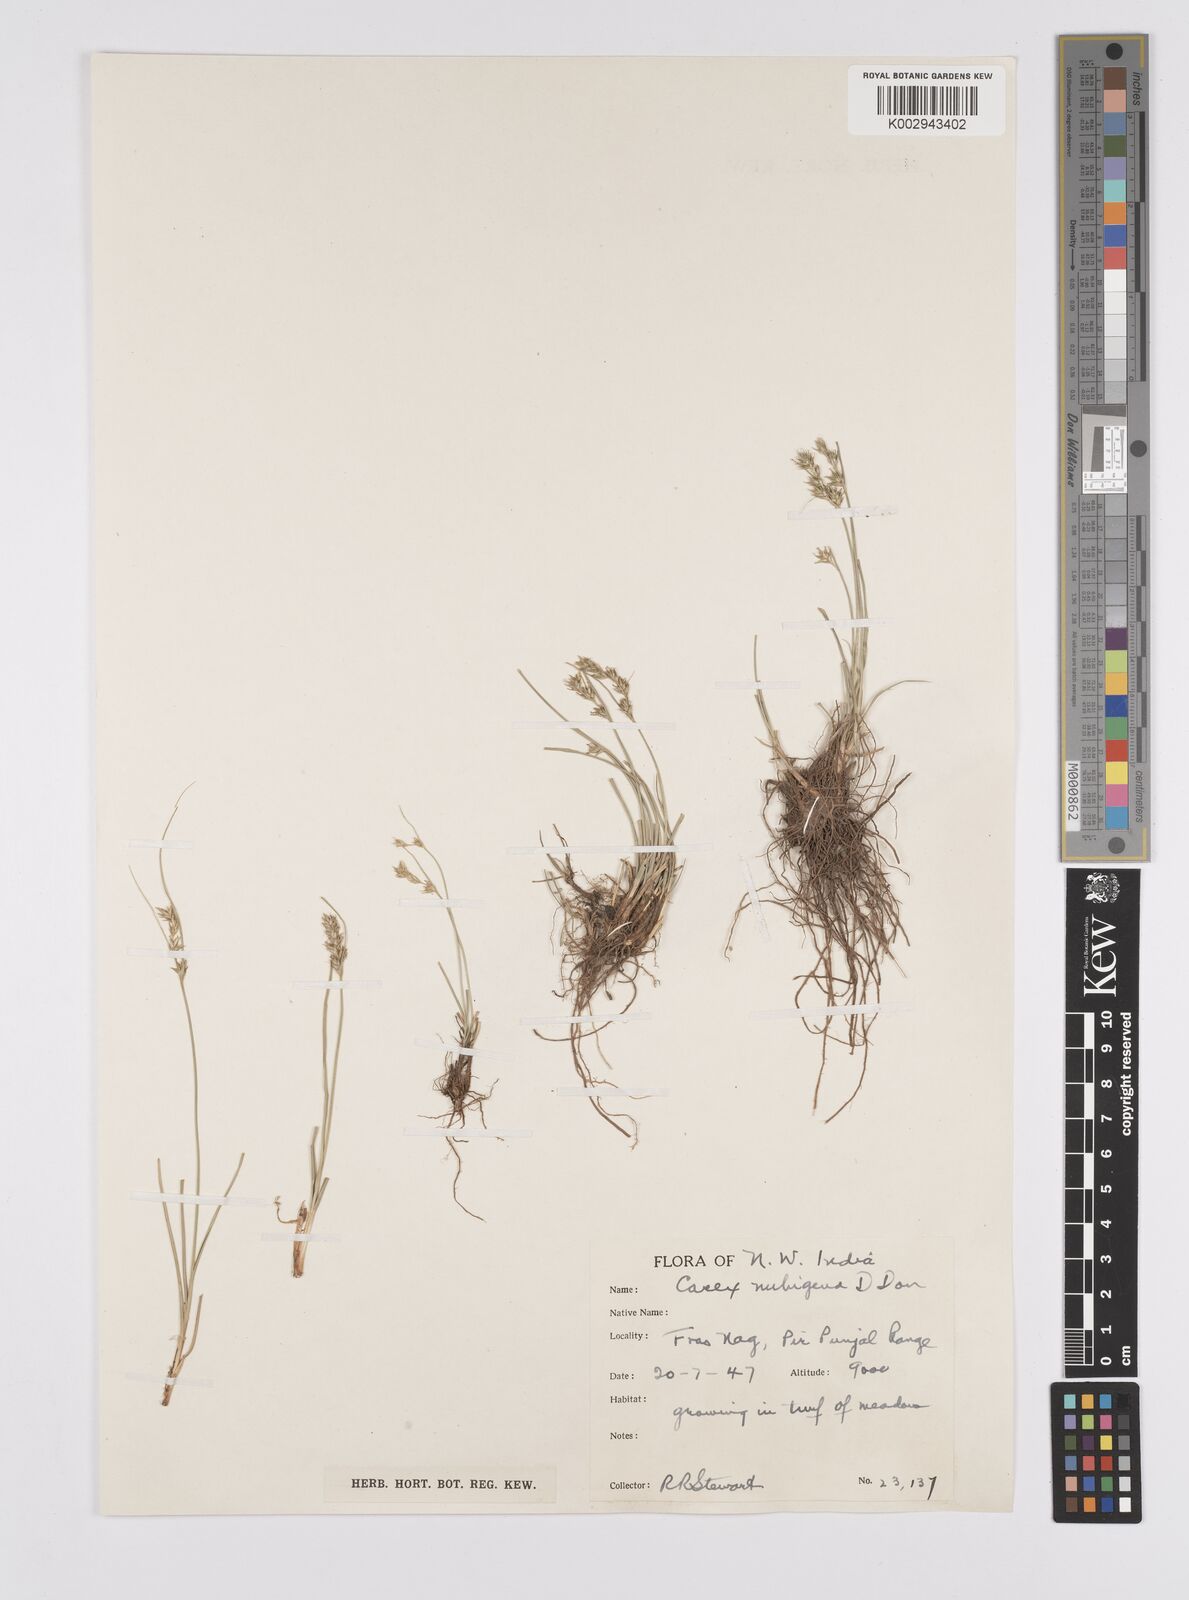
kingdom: Plantae
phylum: Tracheophyta
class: Liliopsida
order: Poales
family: Cyperaceae
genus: Carex
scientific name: Carex nubigena
